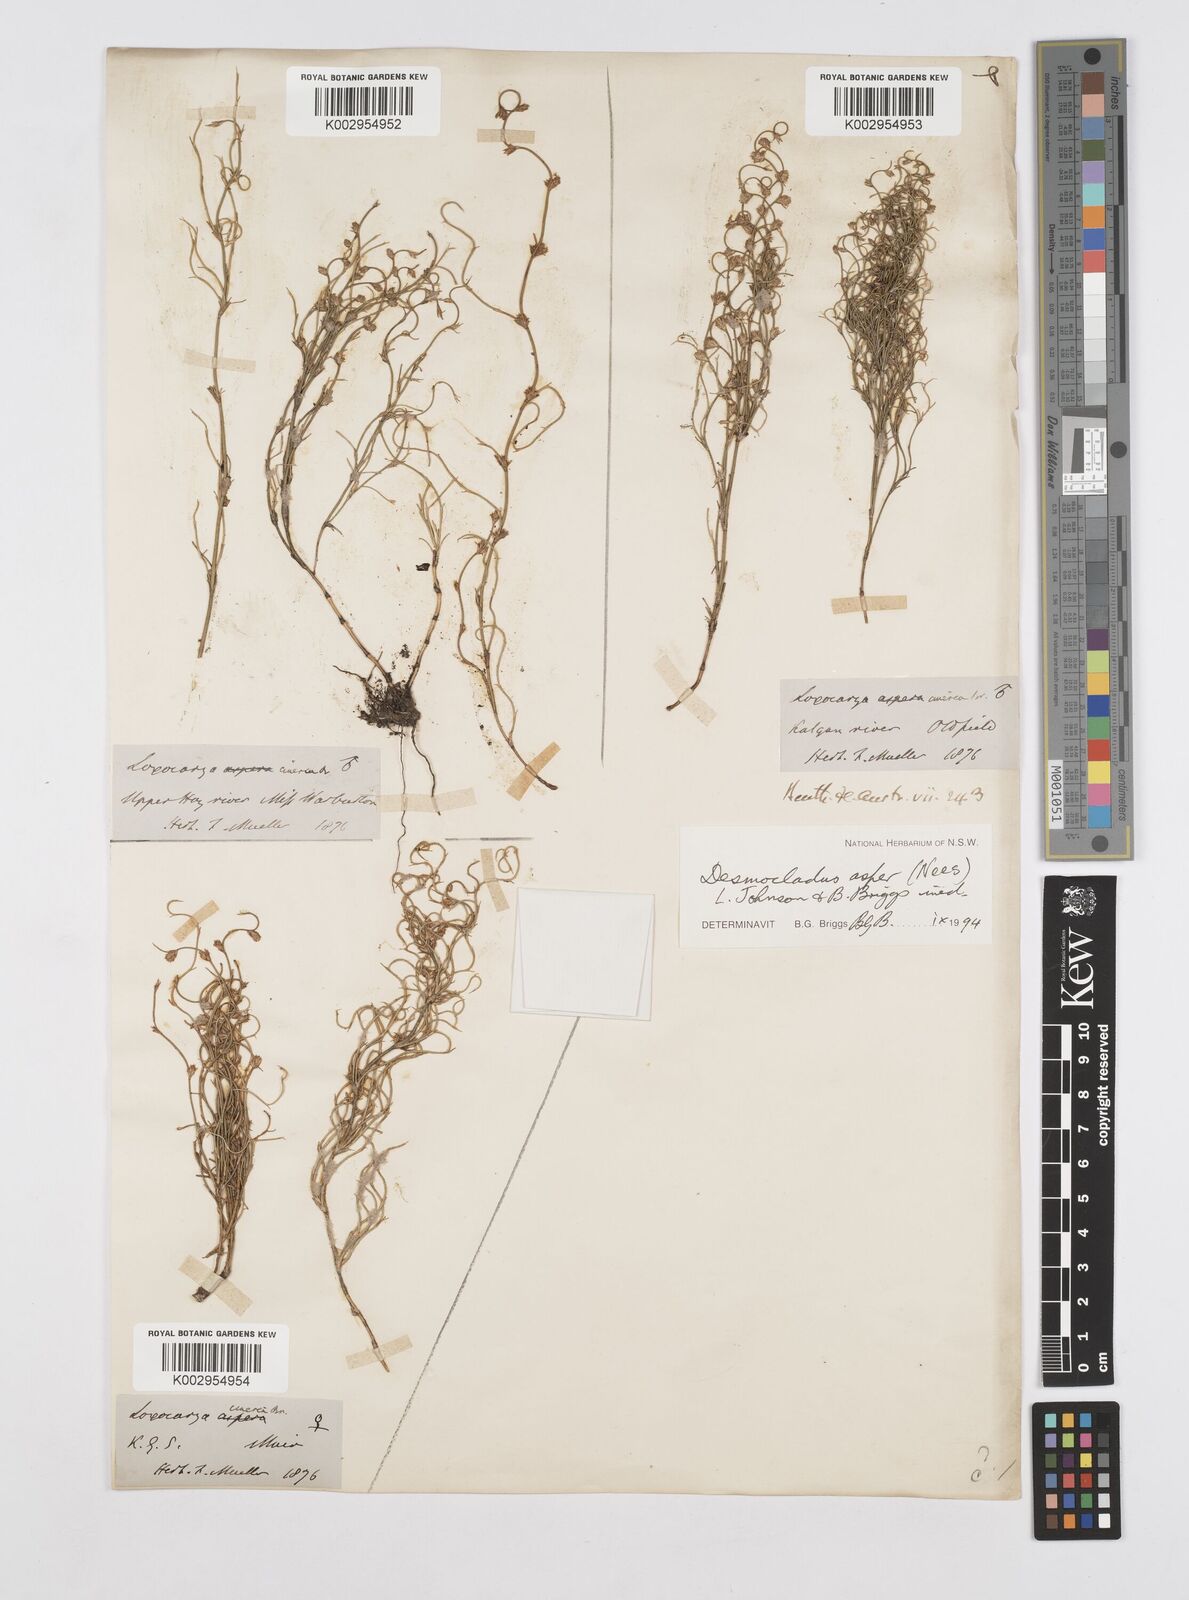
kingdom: Plantae
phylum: Tracheophyta
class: Liliopsida
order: Poales
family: Restionaceae
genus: Desmocladus
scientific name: Desmocladus asper
